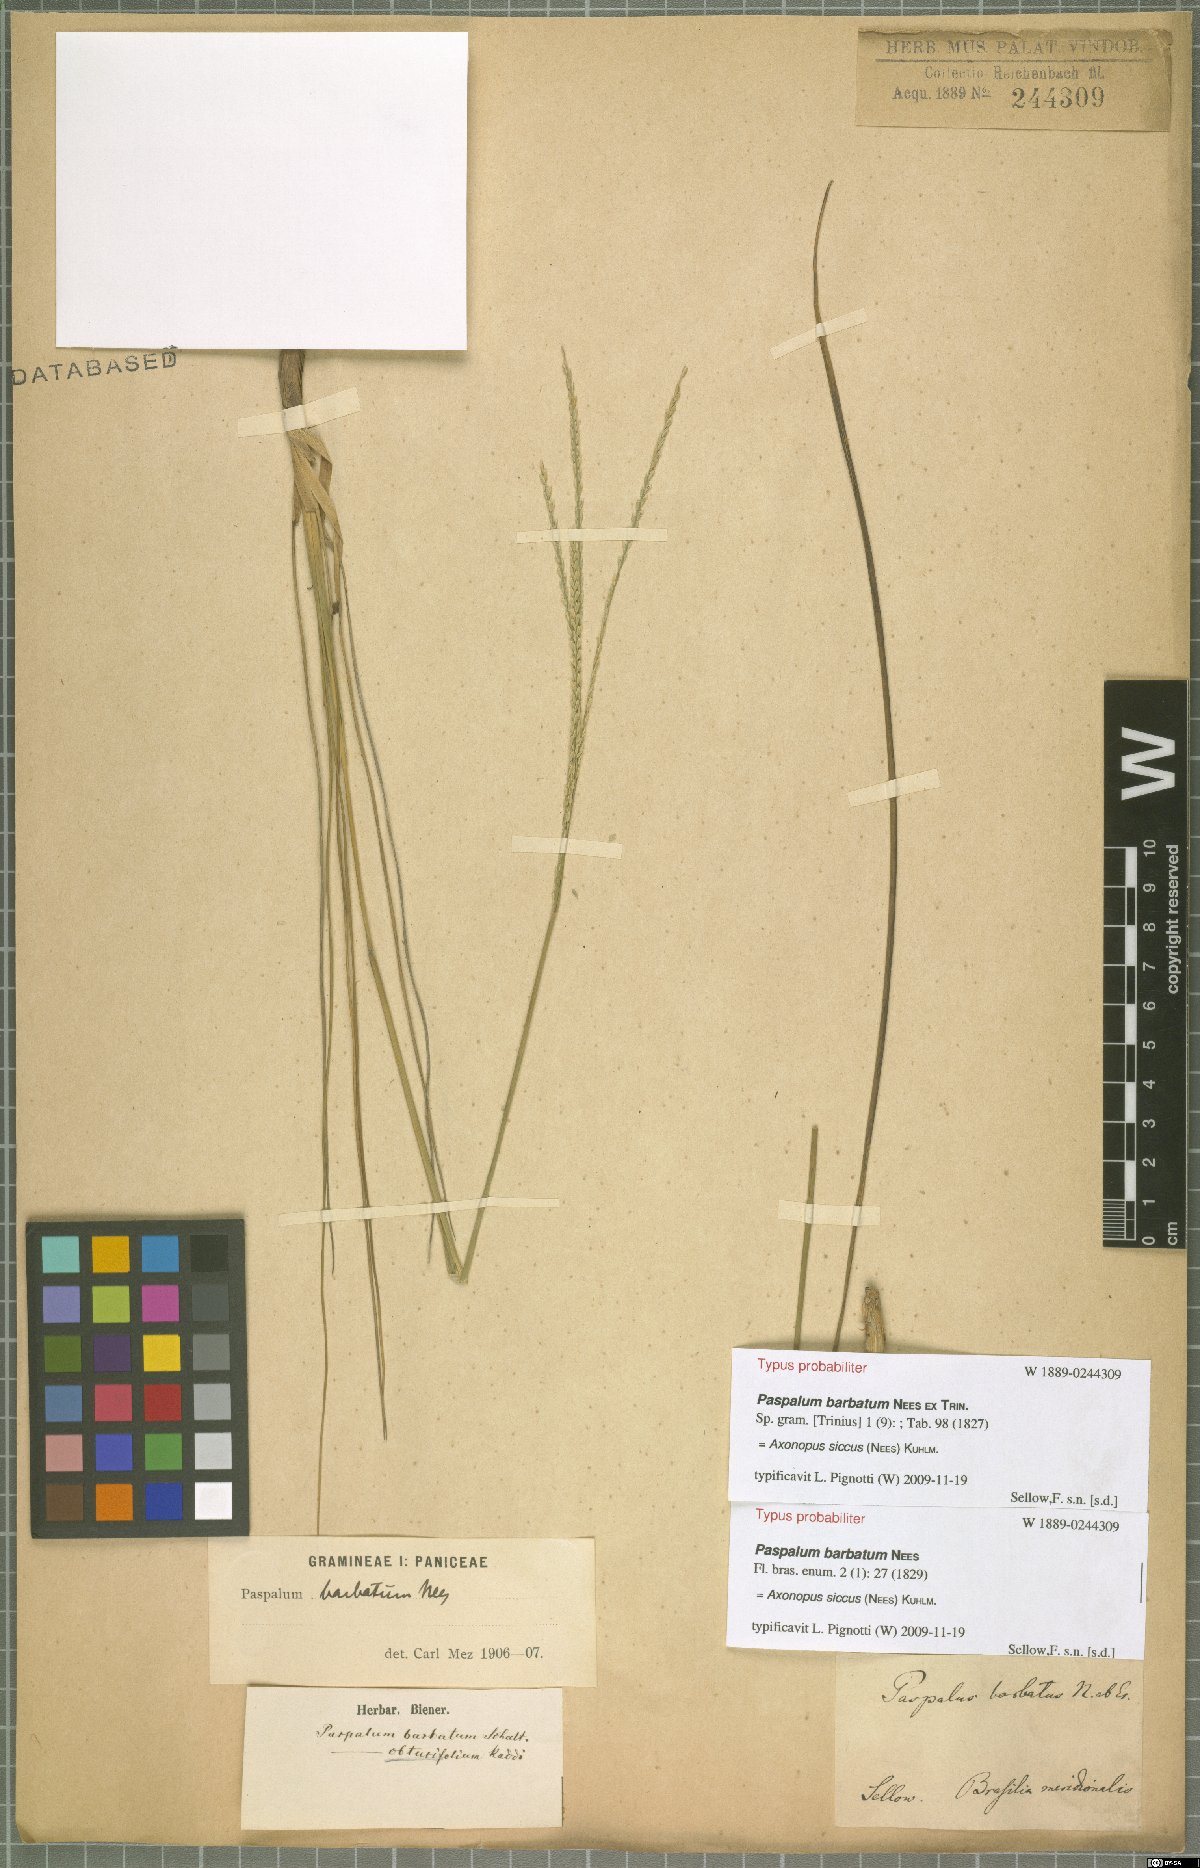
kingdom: Plantae
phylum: Tracheophyta
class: Liliopsida
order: Poales
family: Poaceae
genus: Axonopus
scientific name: Axonopus siccus
